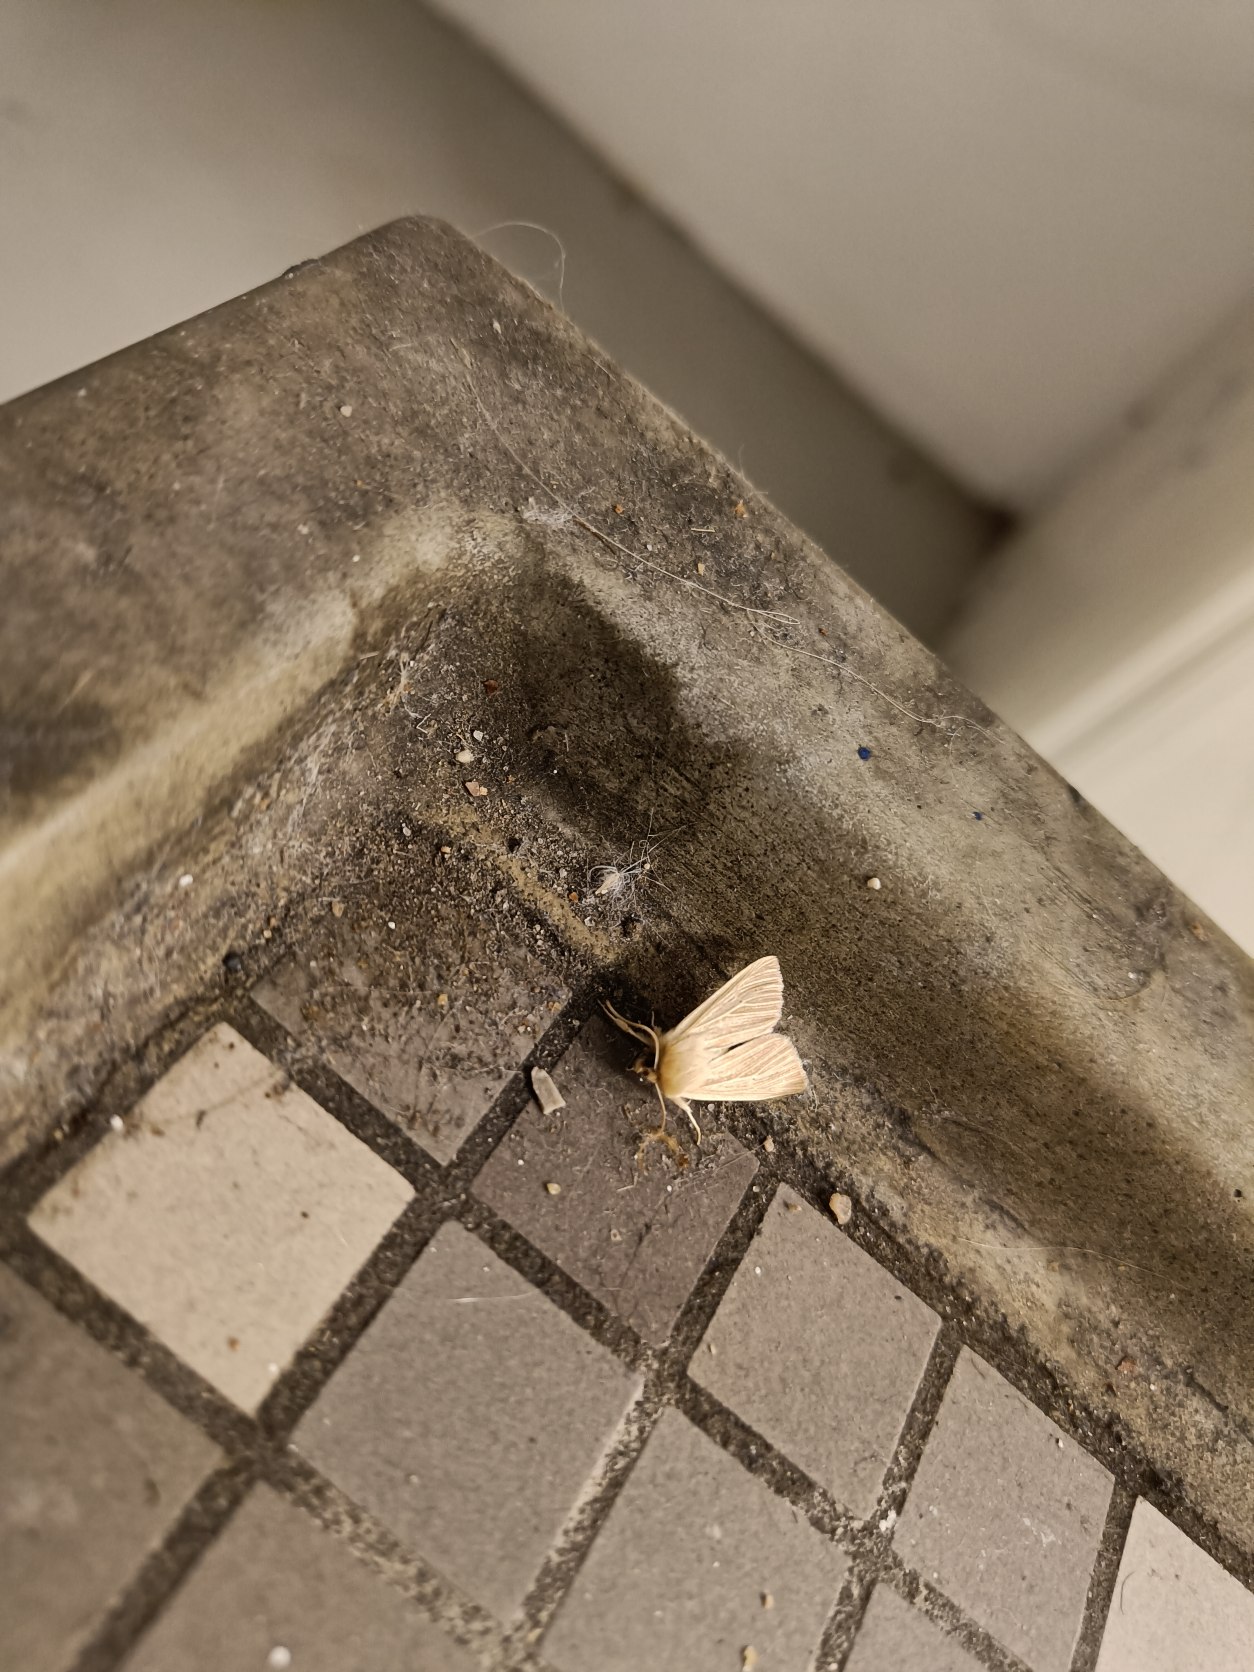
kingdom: Animalia
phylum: Arthropoda
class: Insecta
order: Lepidoptera
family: Noctuidae
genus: Mythimna
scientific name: Mythimna pallens
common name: Halmugle
